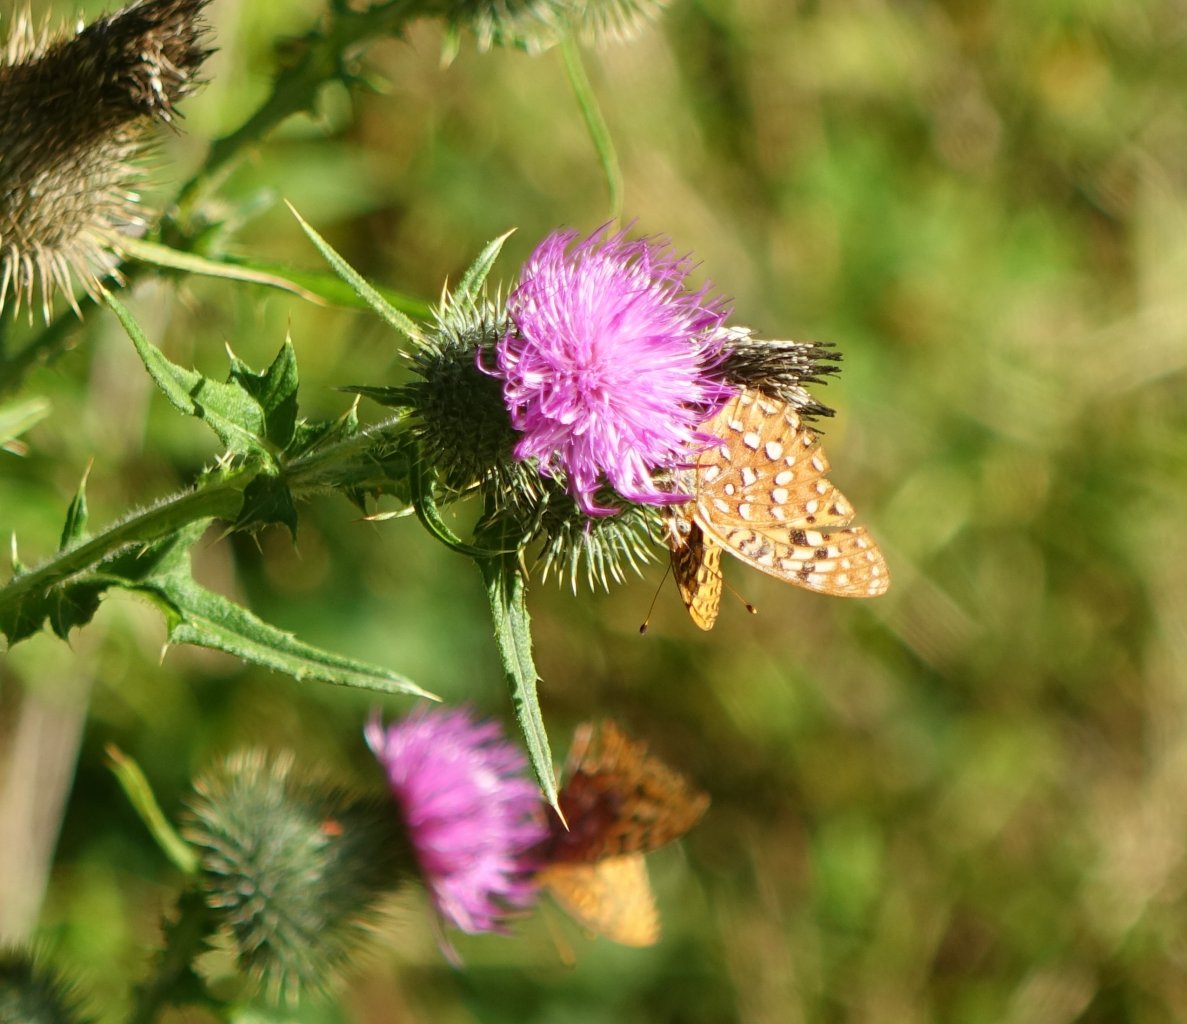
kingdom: Animalia
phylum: Arthropoda
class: Insecta
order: Lepidoptera
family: Nymphalidae
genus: Speyeria
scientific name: Speyeria hydaspe
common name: Hydaspe Fritillary
